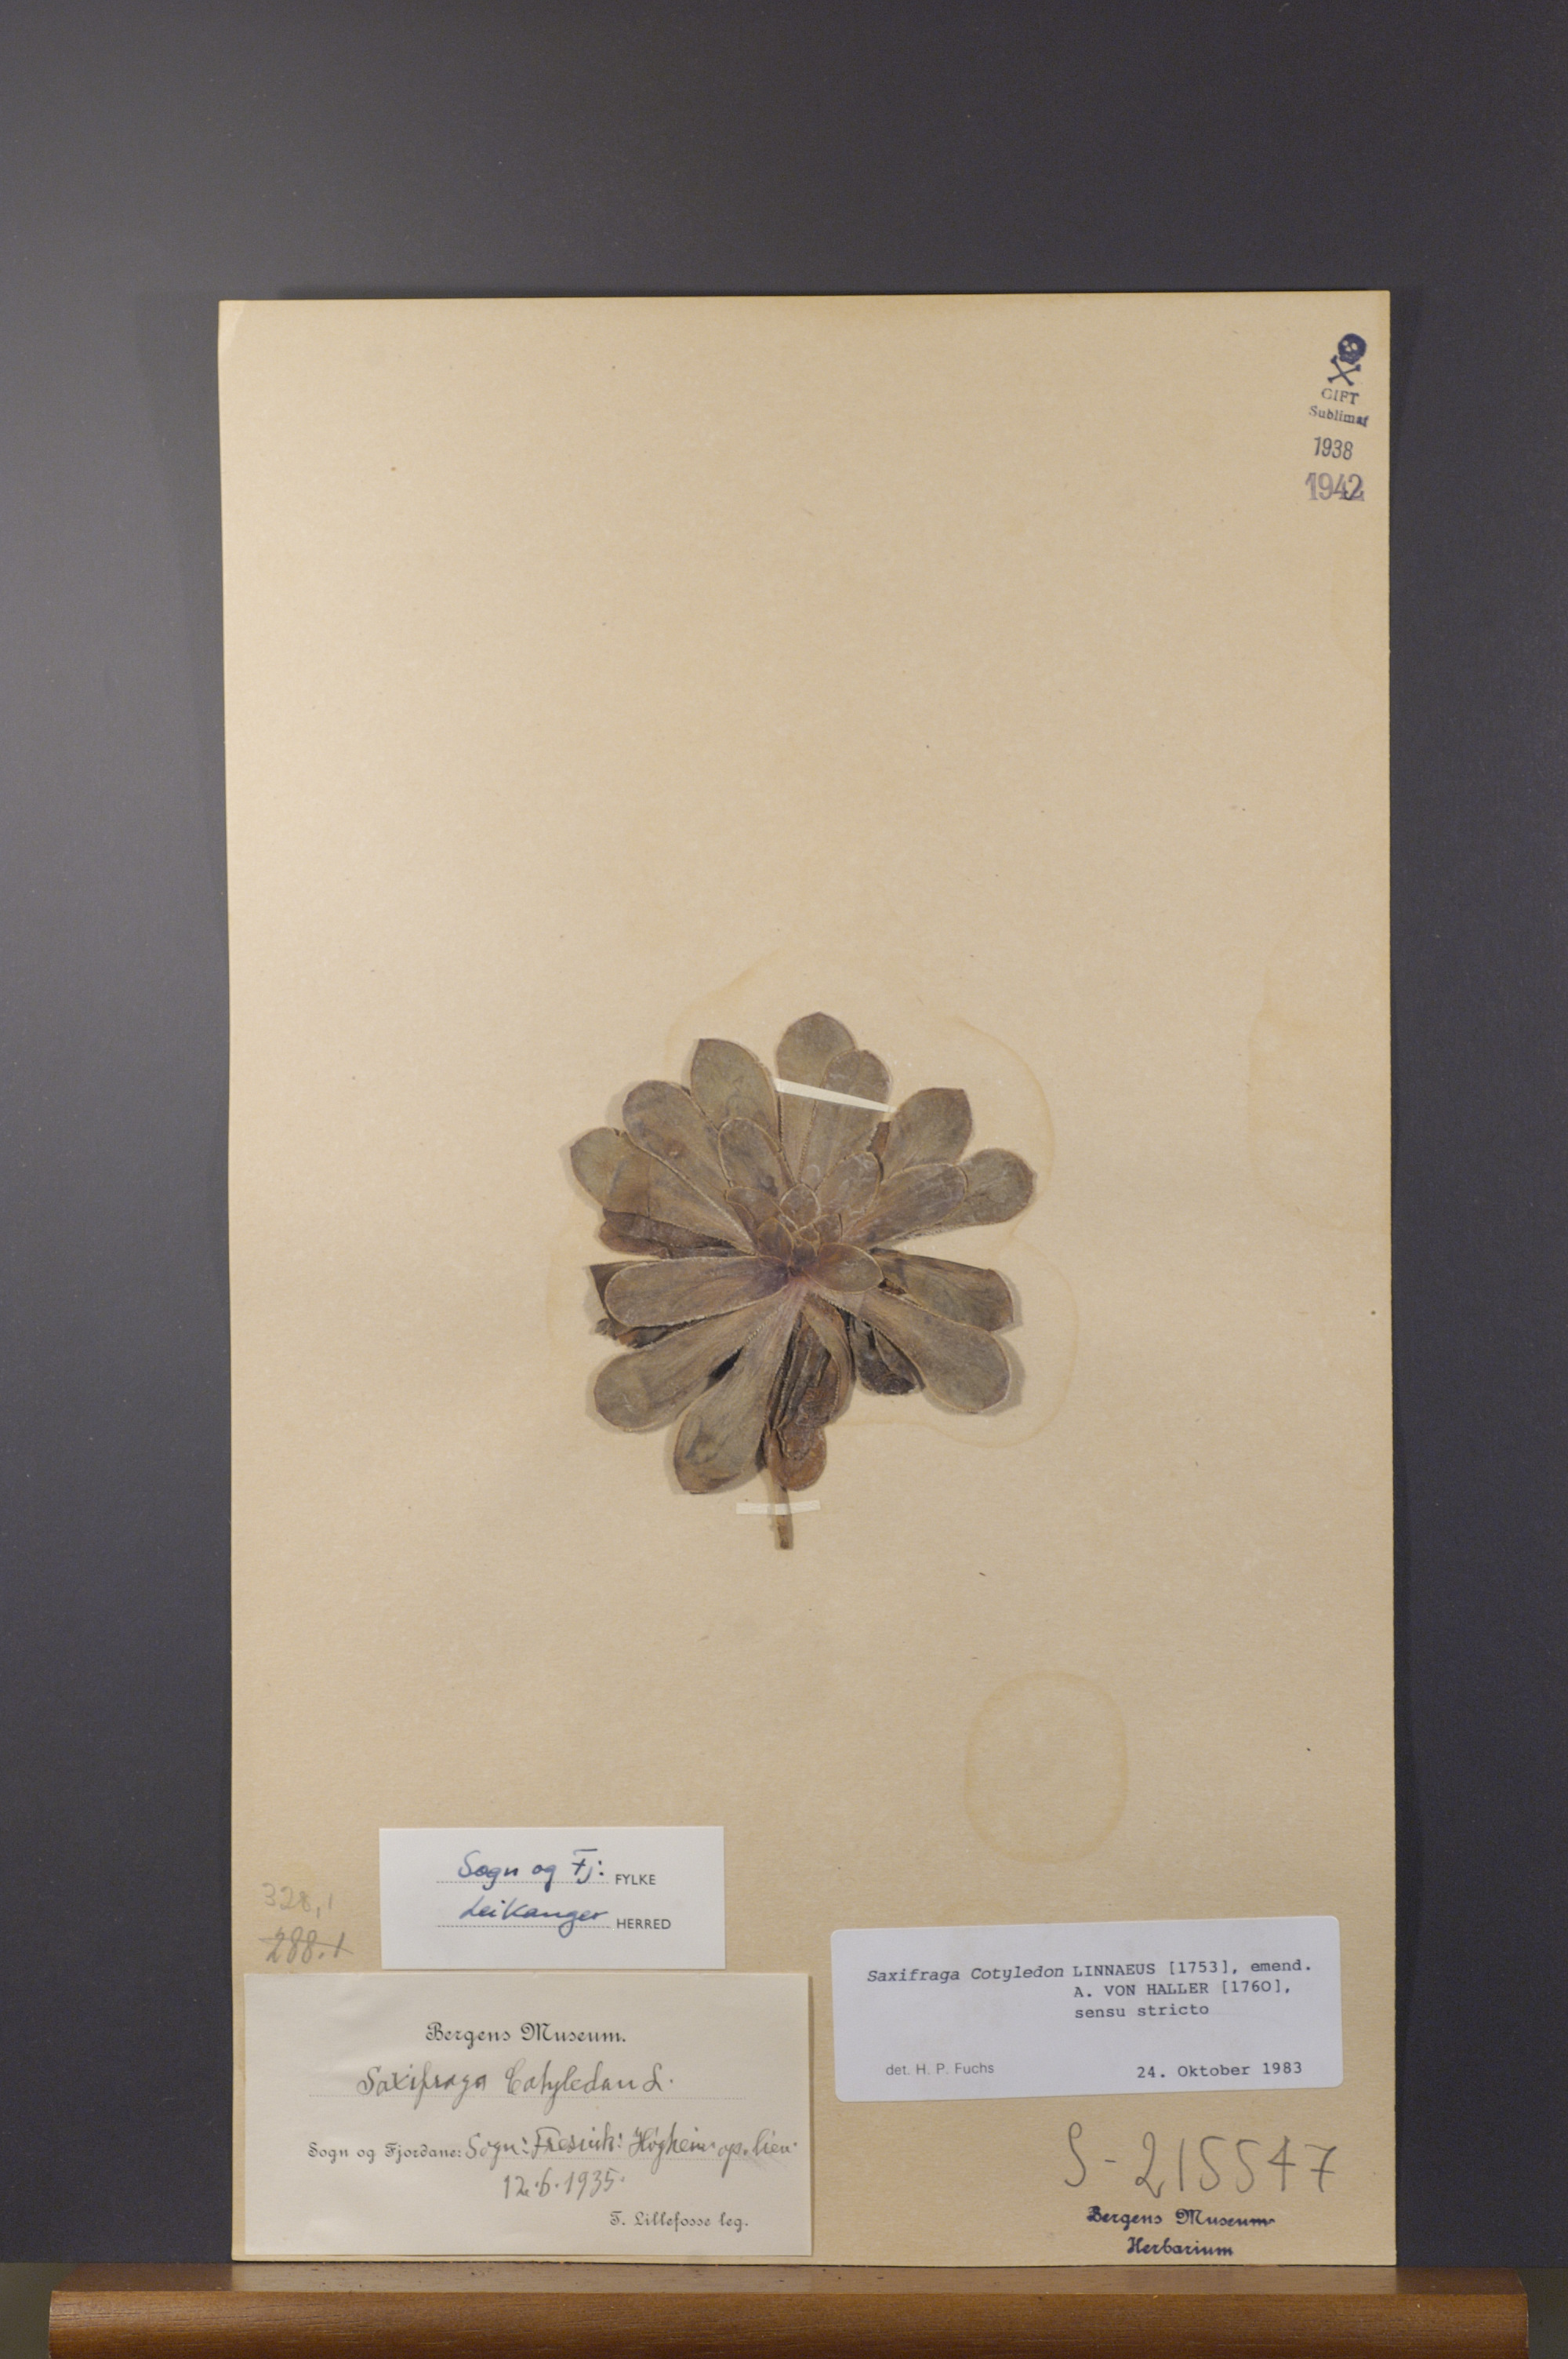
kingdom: Plantae
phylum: Tracheophyta
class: Magnoliopsida
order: Saxifragales
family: Saxifragaceae
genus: Saxifraga
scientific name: Saxifraga cotyledon
